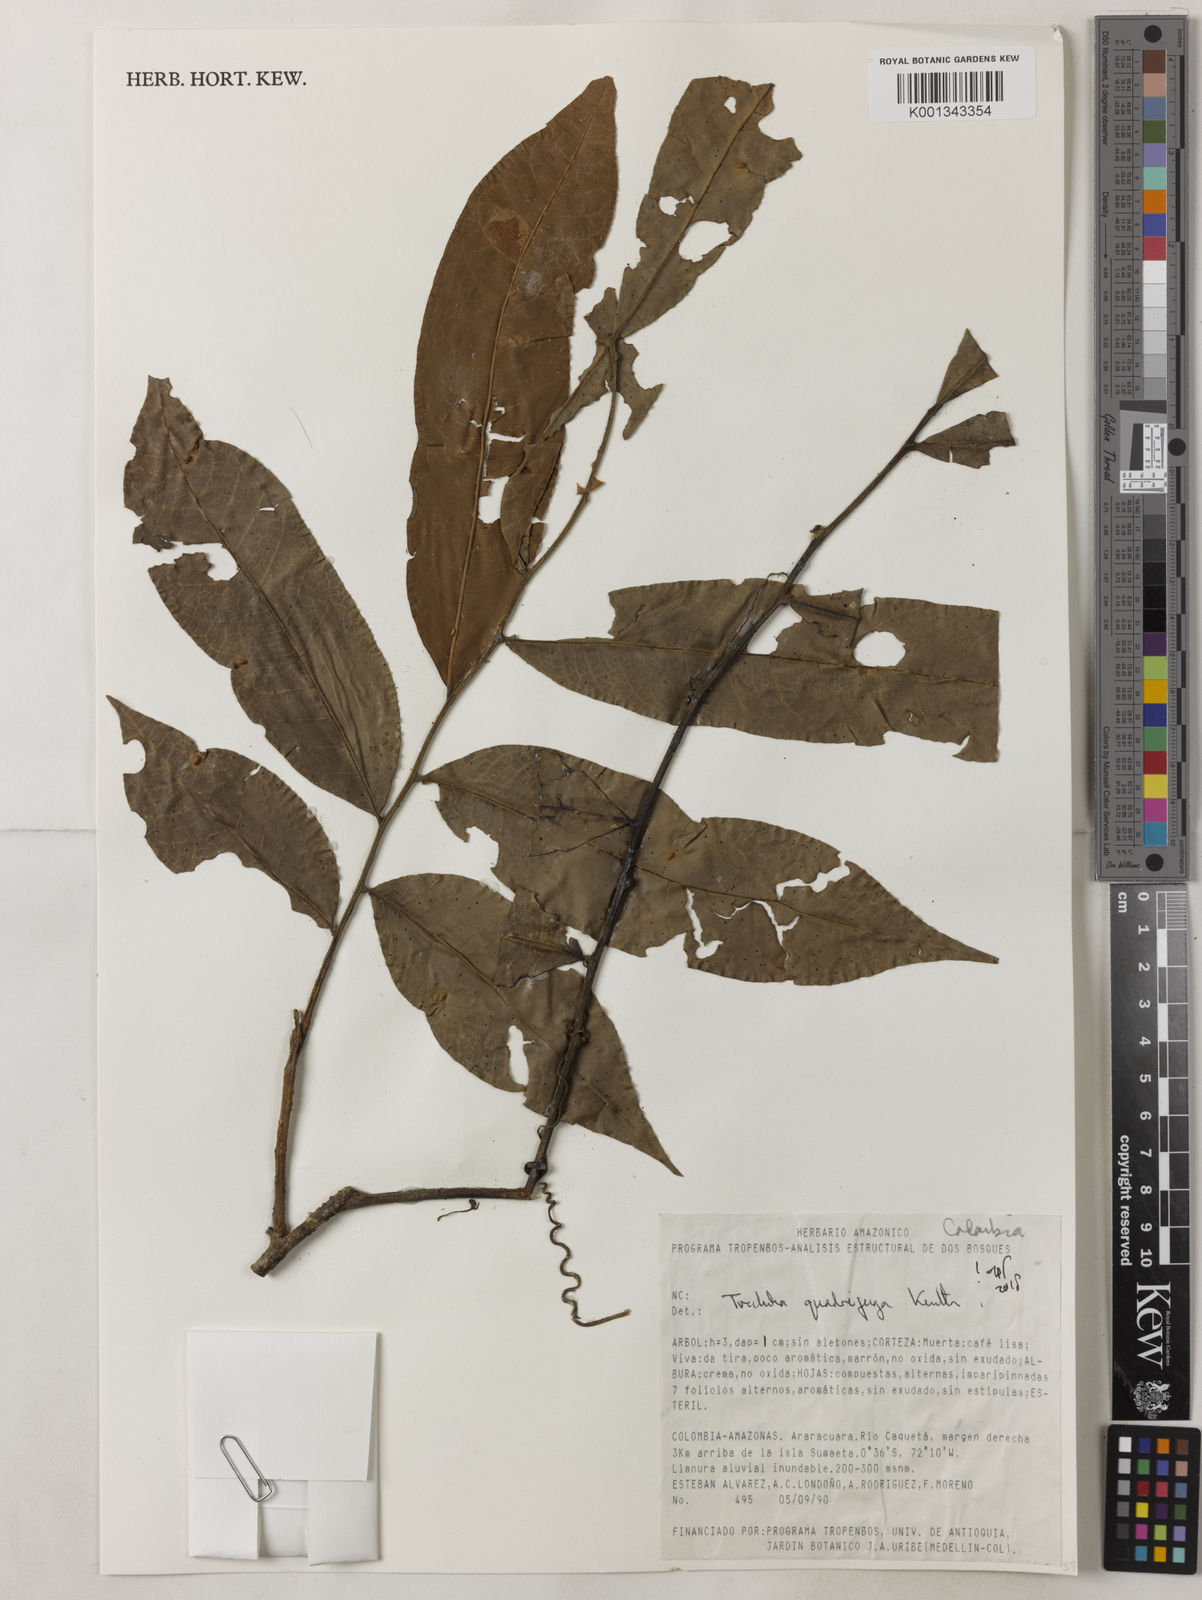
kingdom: Plantae
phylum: Tracheophyta
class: Magnoliopsida
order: Sapindales
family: Meliaceae
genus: Trichilia
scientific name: Trichilia
